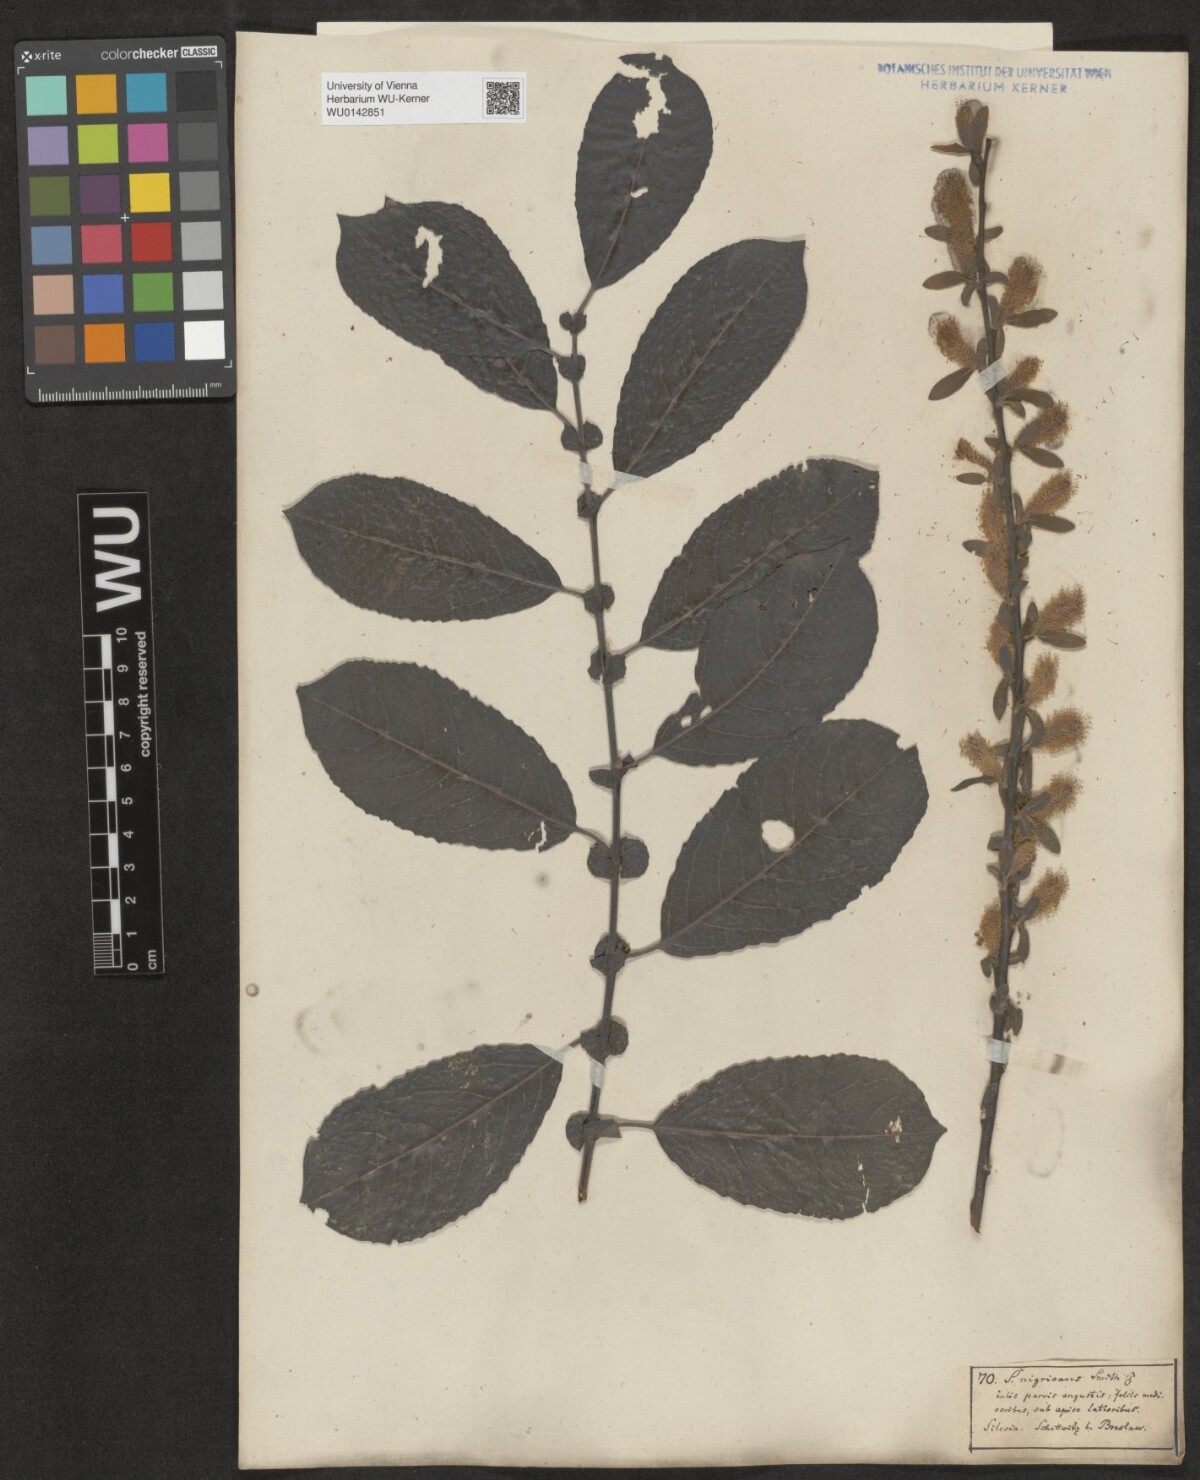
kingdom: Plantae
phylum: Tracheophyta
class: Magnoliopsida
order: Malpighiales
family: Salicaceae
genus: Salix
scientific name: Salix myrsinifolia
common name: Dark-leaved willow
